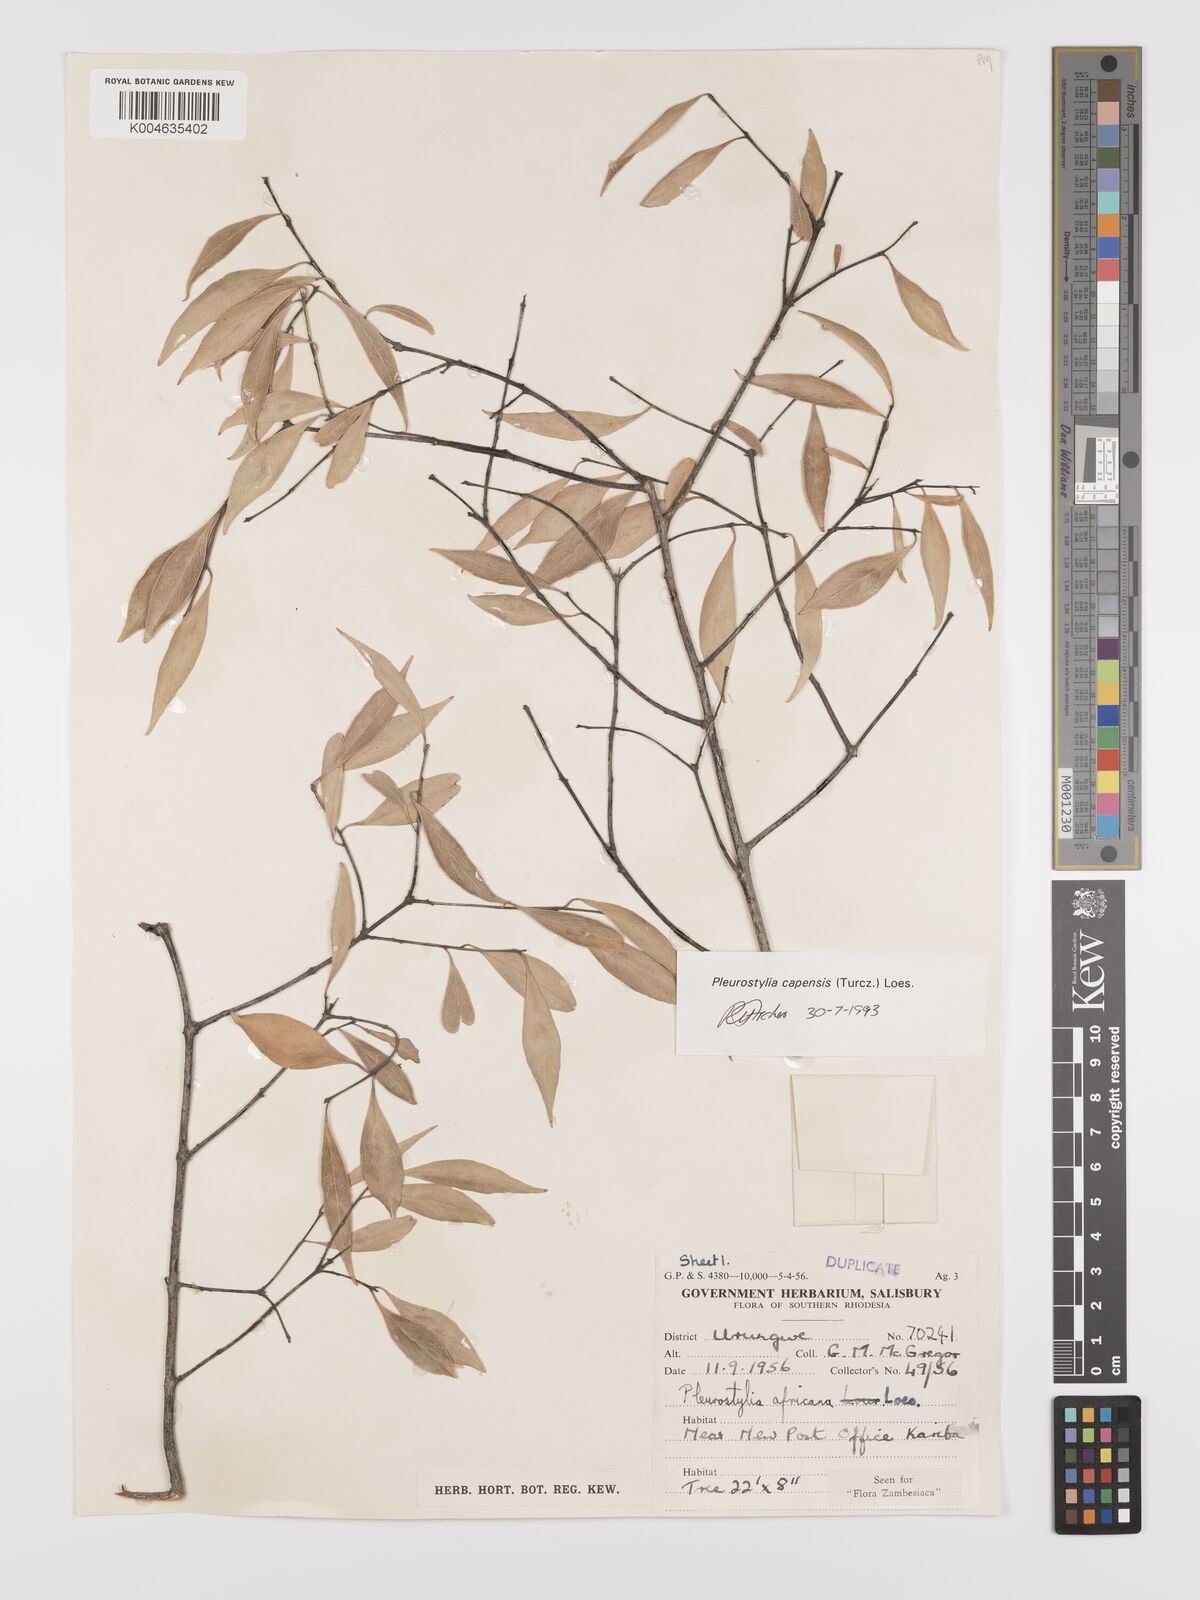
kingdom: Plantae
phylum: Tracheophyta
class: Magnoliopsida
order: Celastrales
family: Celastraceae
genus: Pleurostylia
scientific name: Pleurostylia africana
